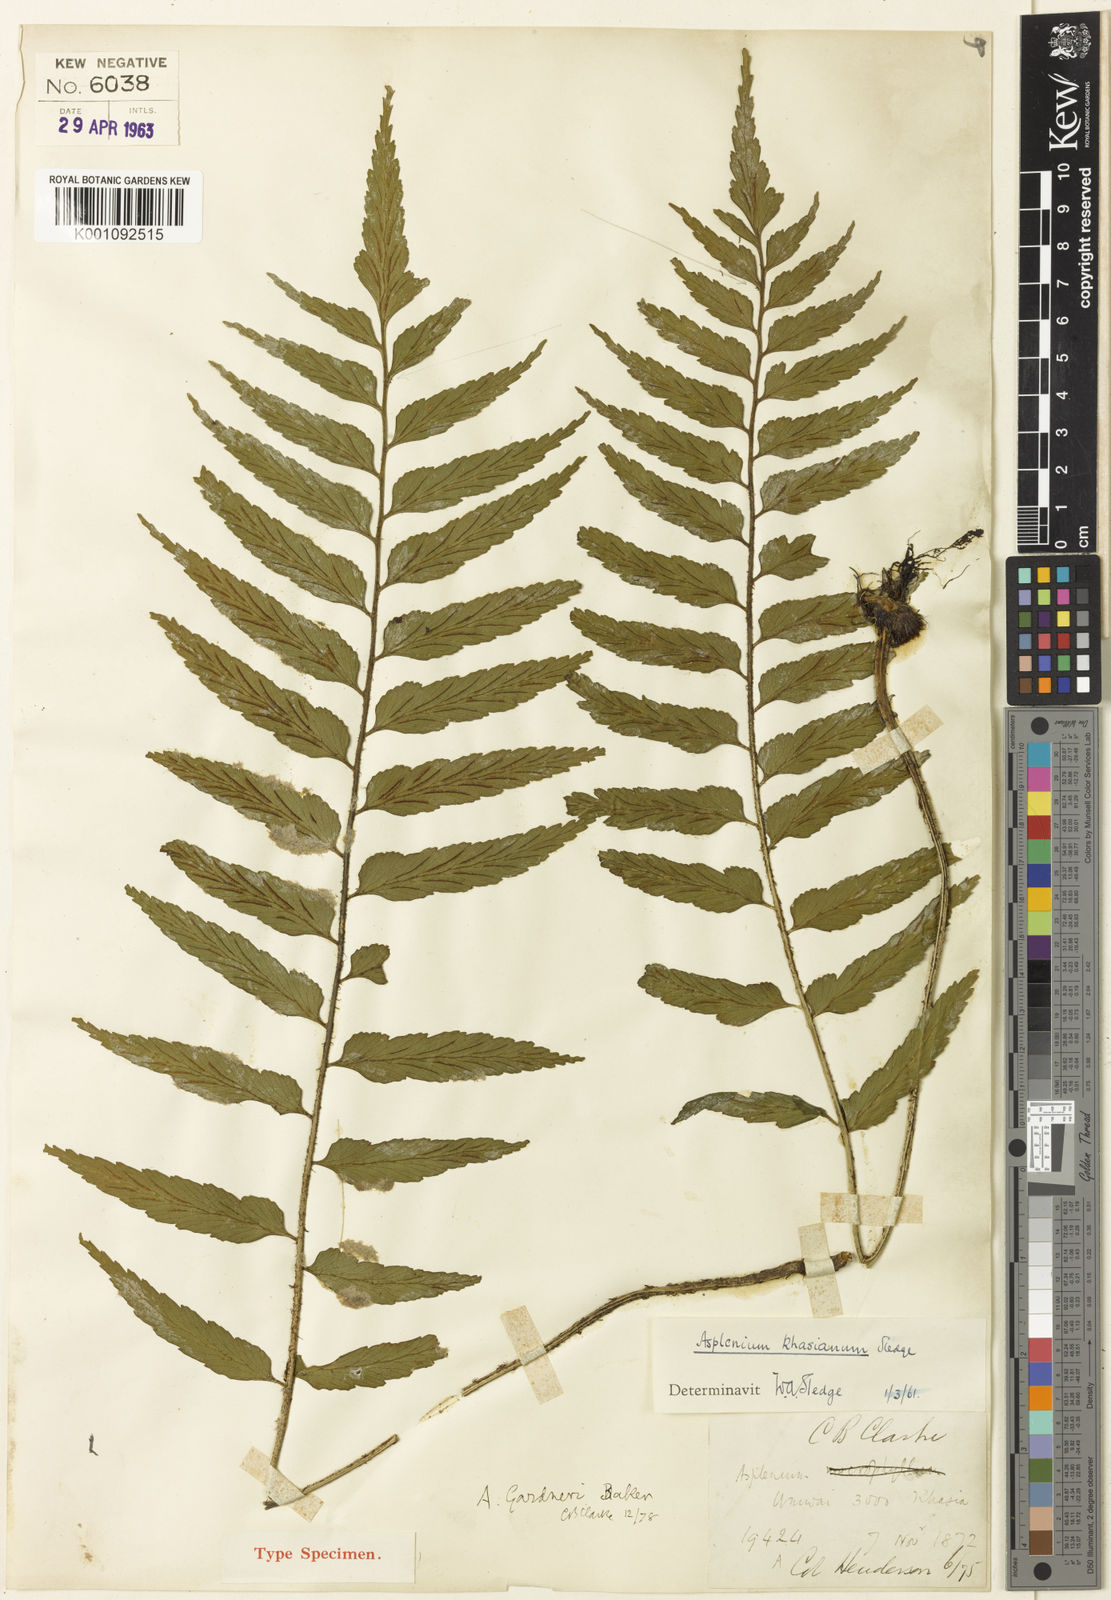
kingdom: Plantae
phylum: Tracheophyta
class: Polypodiopsida
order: Polypodiales
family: Aspleniaceae
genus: Asplenium
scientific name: Asplenium trapezoideum
